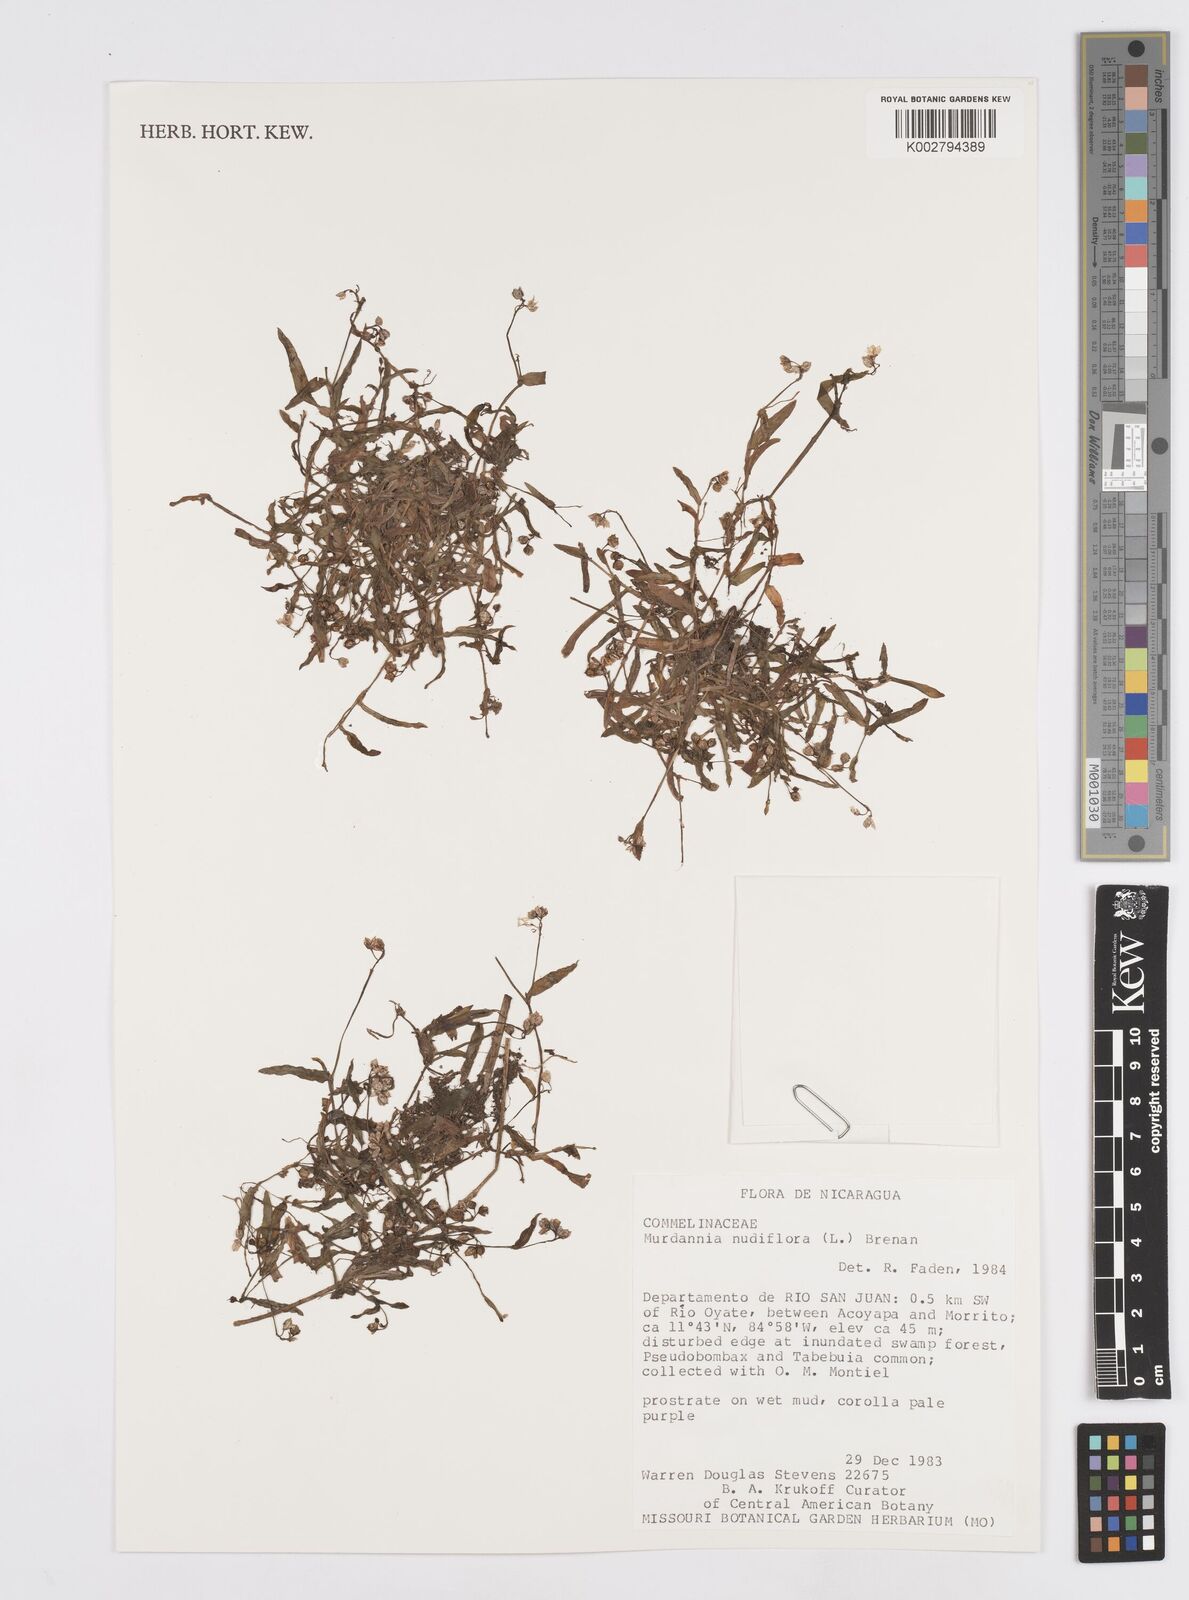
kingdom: Plantae
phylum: Tracheophyta
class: Liliopsida
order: Commelinales
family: Commelinaceae
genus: Murdannia
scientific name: Murdannia nudiflora
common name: Nakedstem dewflower
